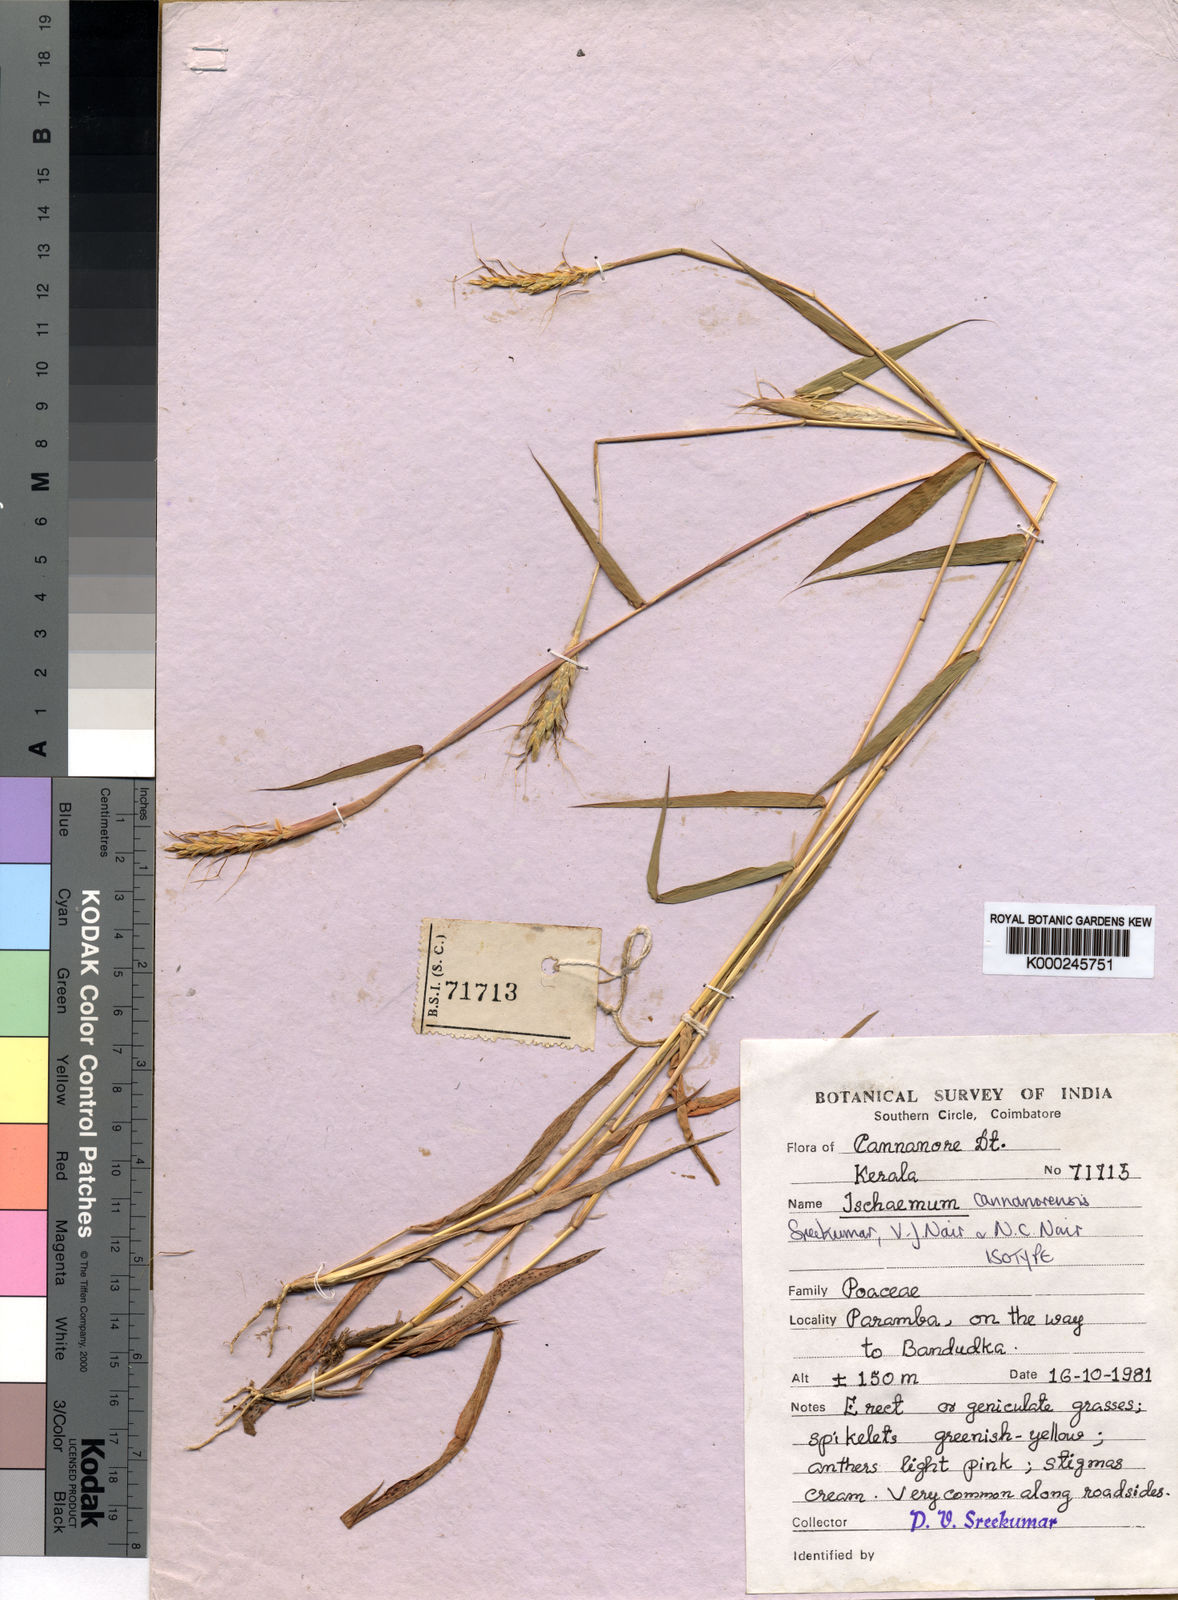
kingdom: Plantae
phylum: Tracheophyta
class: Liliopsida
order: Poales
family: Poaceae
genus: Ischaemum
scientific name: Ischaemum cannanorense
